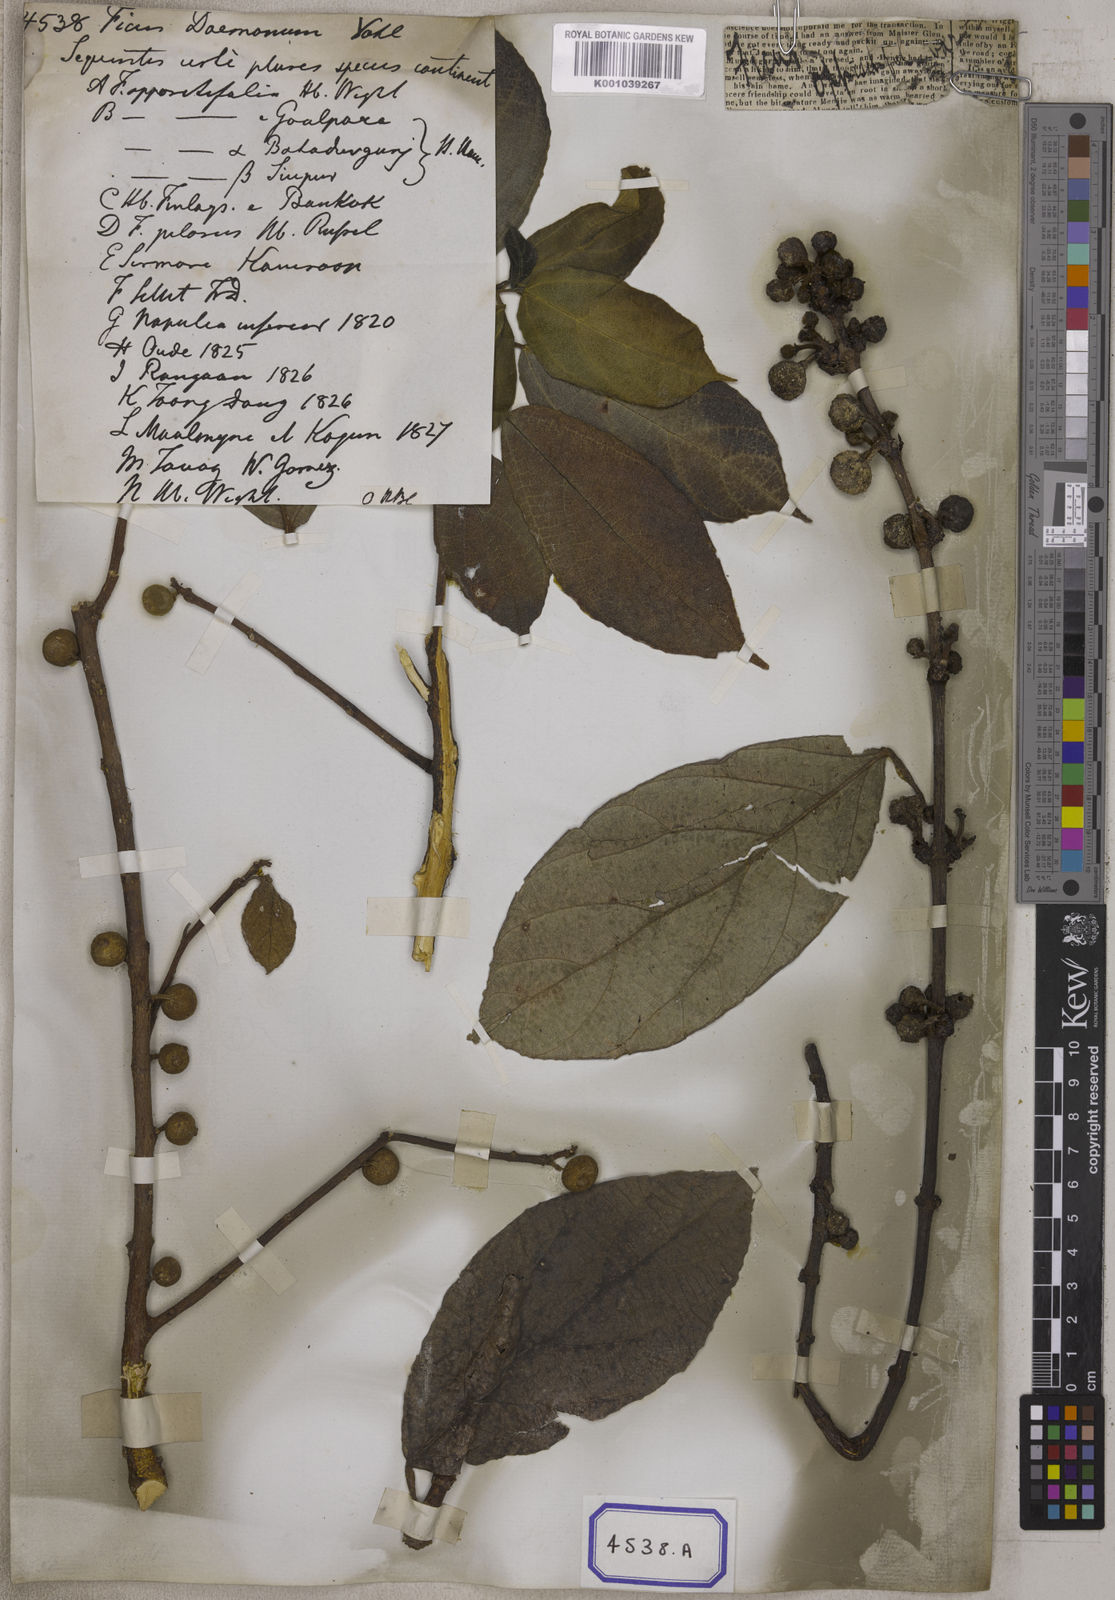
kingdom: Plantae
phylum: Tracheophyta
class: Magnoliopsida
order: Rosales
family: Moraceae
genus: Ficus
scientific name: Ficus hispida
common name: Hairy fig
